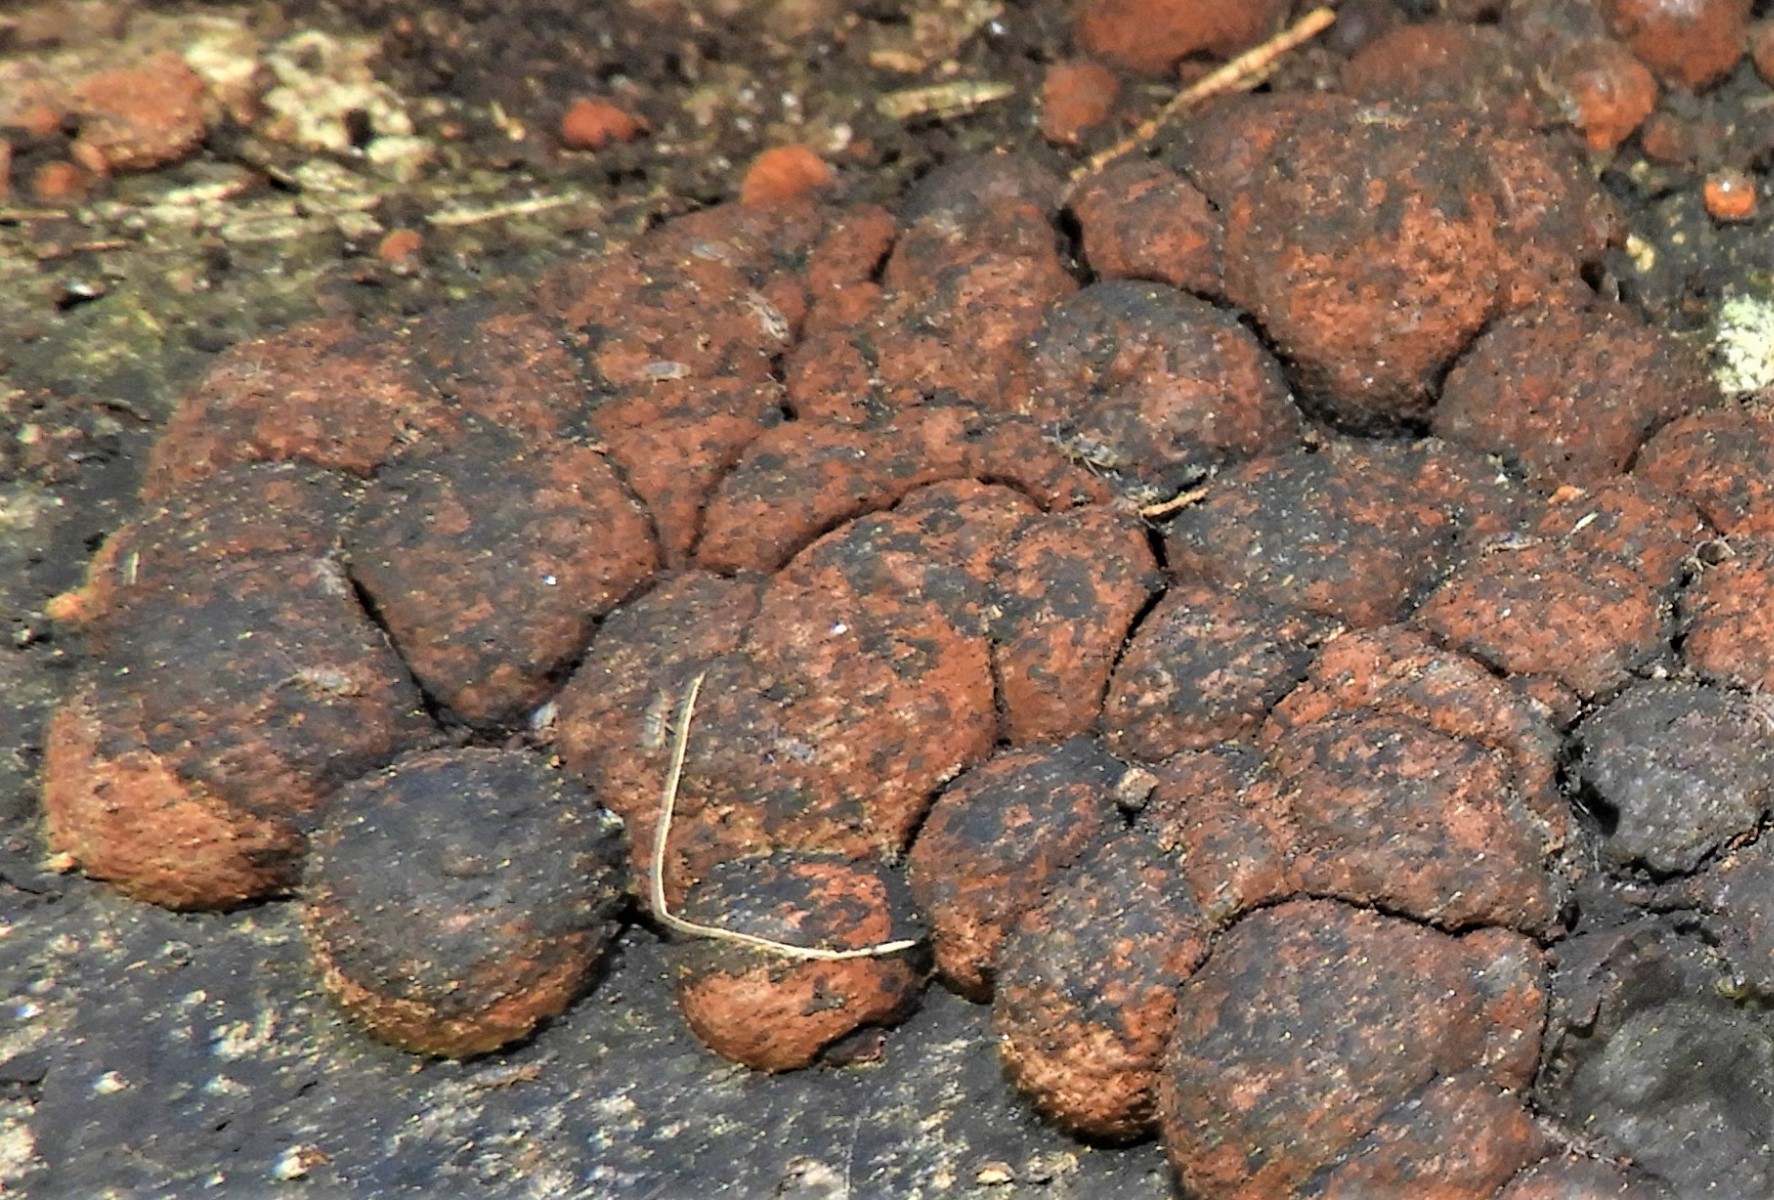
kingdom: Fungi
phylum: Ascomycota
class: Sordariomycetes
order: Xylariales
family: Hypoxylaceae
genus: Hypoxylon
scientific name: Hypoxylon fragiforme
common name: kuljordbær
